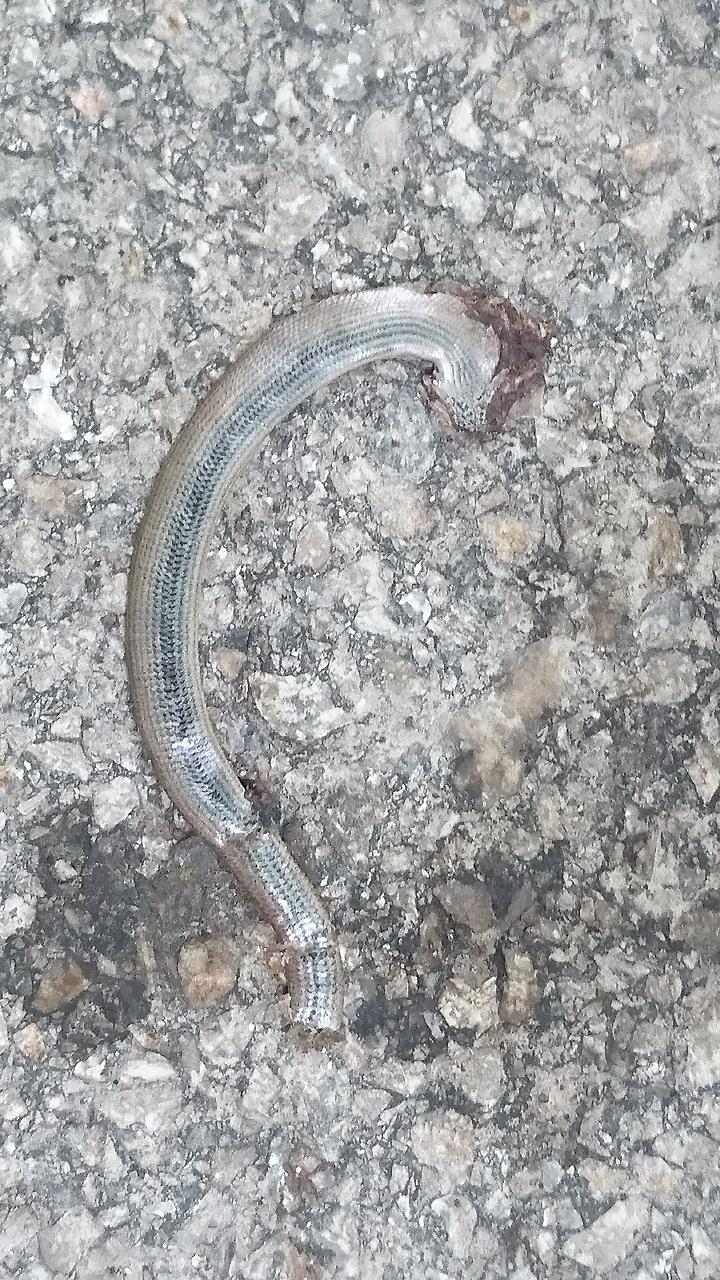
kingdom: Animalia
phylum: Chordata
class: Squamata
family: Anguidae
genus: Anguis
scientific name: Anguis fragilis
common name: Slow worm
